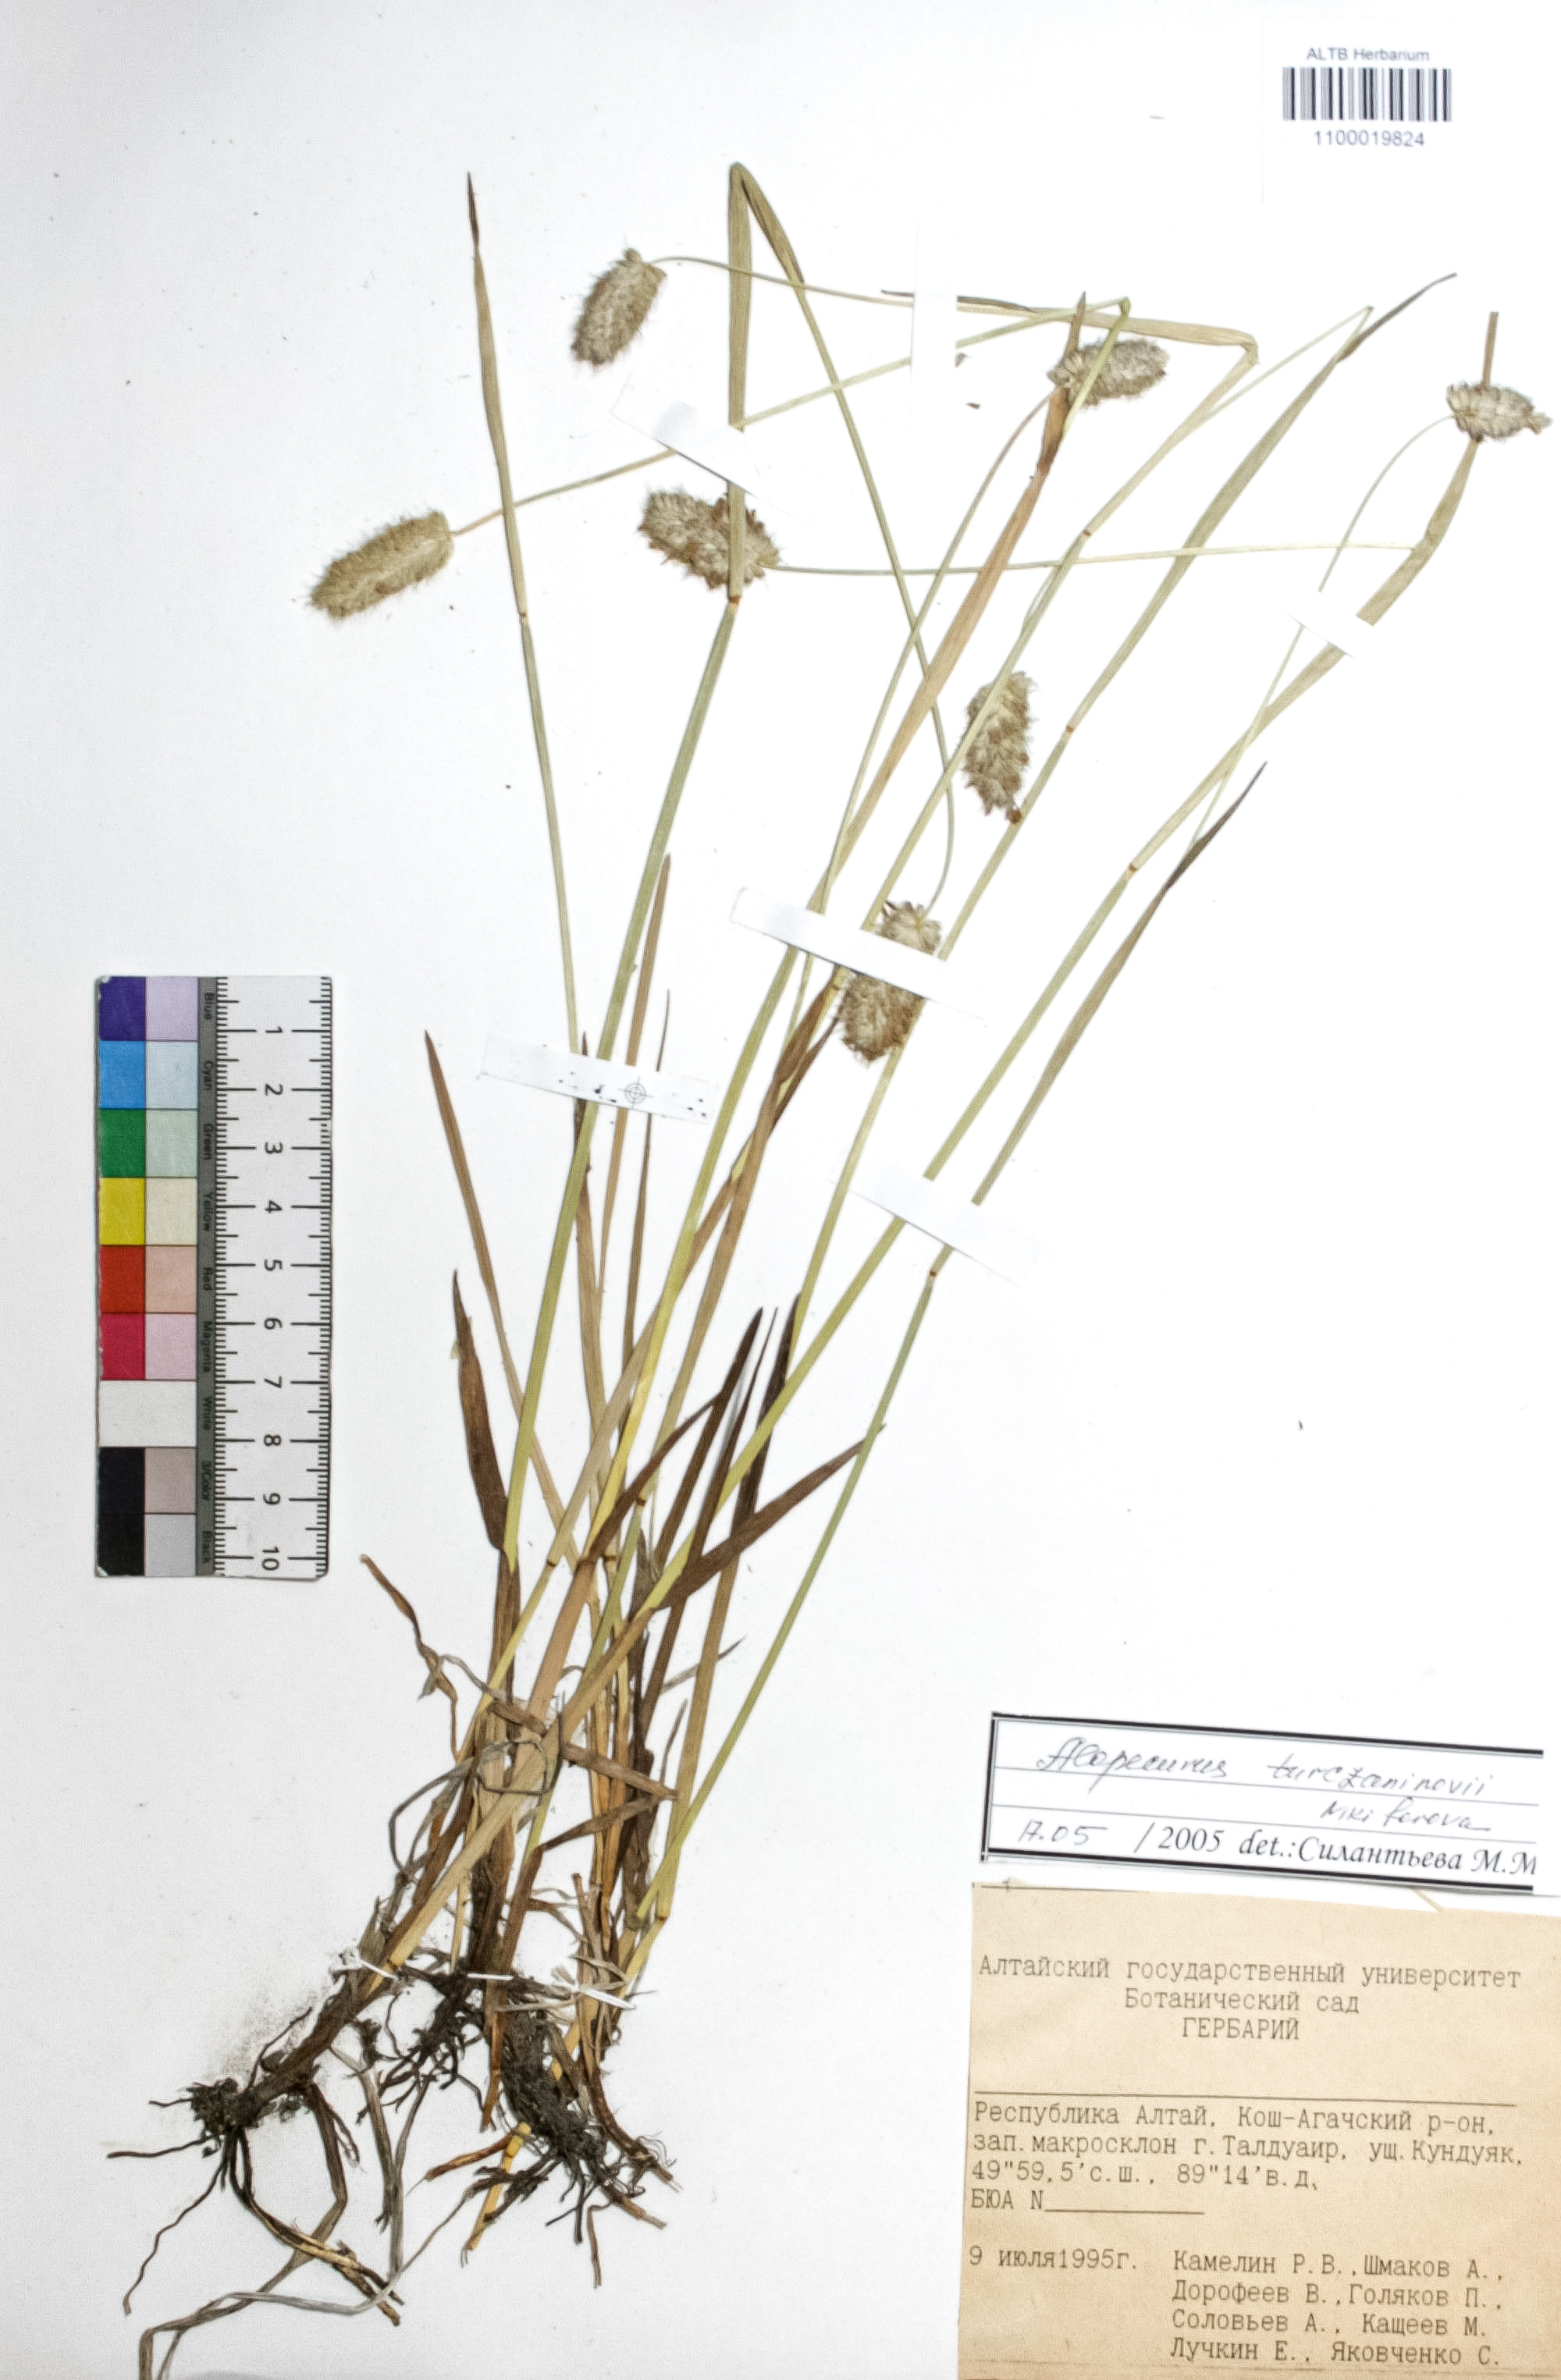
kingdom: Plantae
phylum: Tracheophyta
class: Liliopsida
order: Poales
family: Poaceae
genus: Alopecurus
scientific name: Alopecurus turczaninovii
